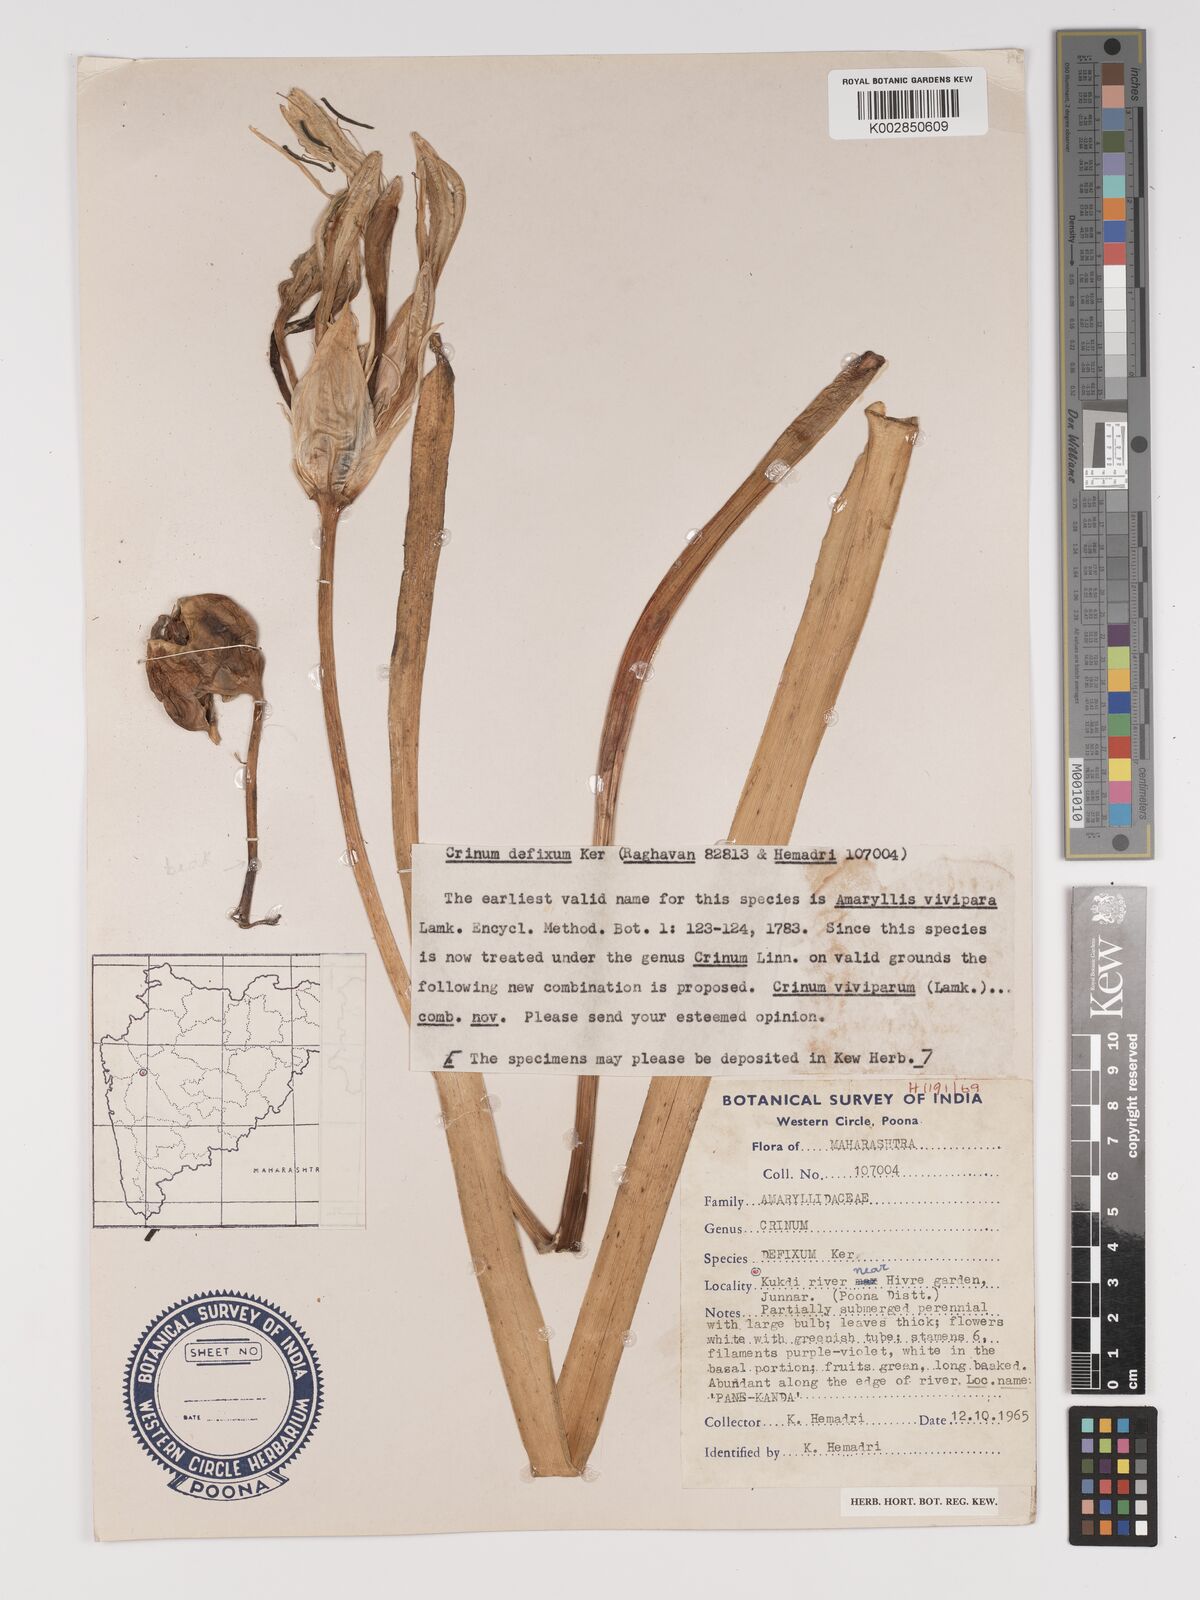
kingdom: Plantae
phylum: Tracheophyta
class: Liliopsida
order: Asparagales
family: Amaryllidaceae
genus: Crinum
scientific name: Crinum defixum
